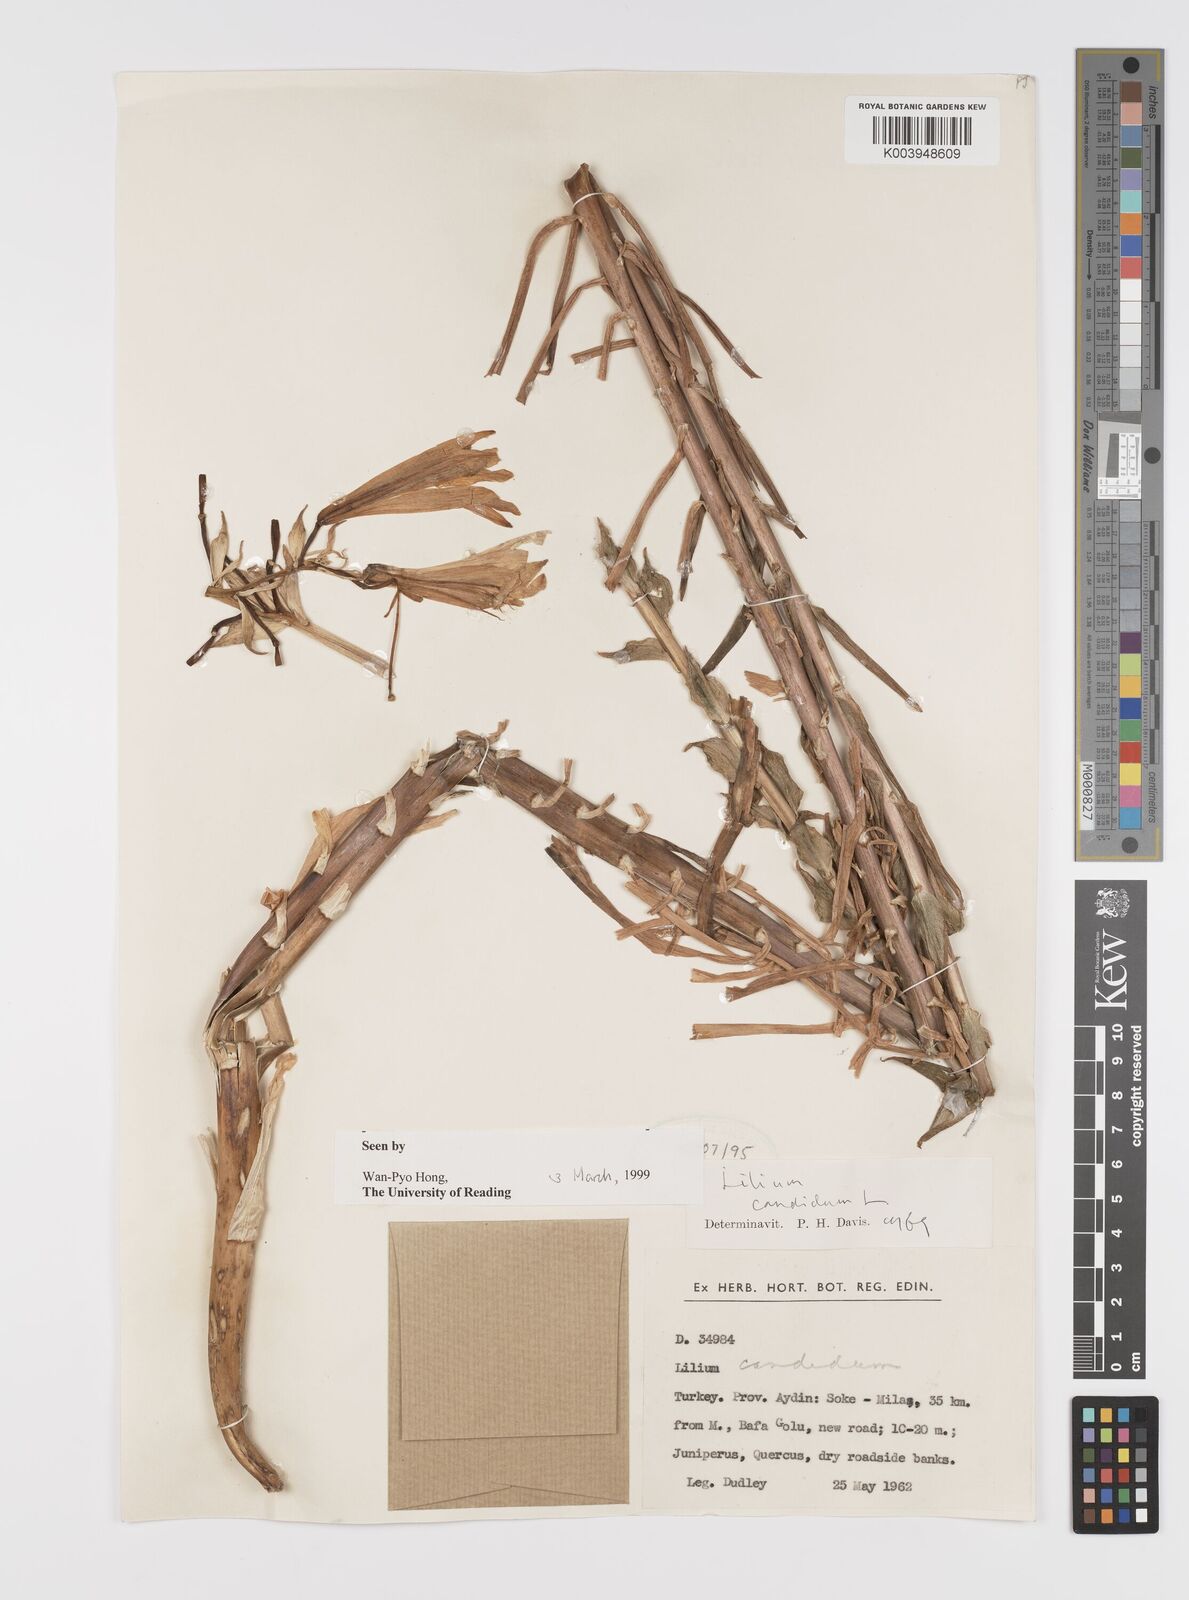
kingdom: Plantae
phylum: Tracheophyta
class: Liliopsida
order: Liliales
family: Liliaceae
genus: Lilium
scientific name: Lilium candidum
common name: Madonna lily
